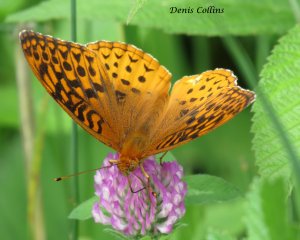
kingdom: Animalia
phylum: Arthropoda
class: Insecta
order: Lepidoptera
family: Nymphalidae
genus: Speyeria
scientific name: Speyeria aphrodite
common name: Aphrodite Fritillary
